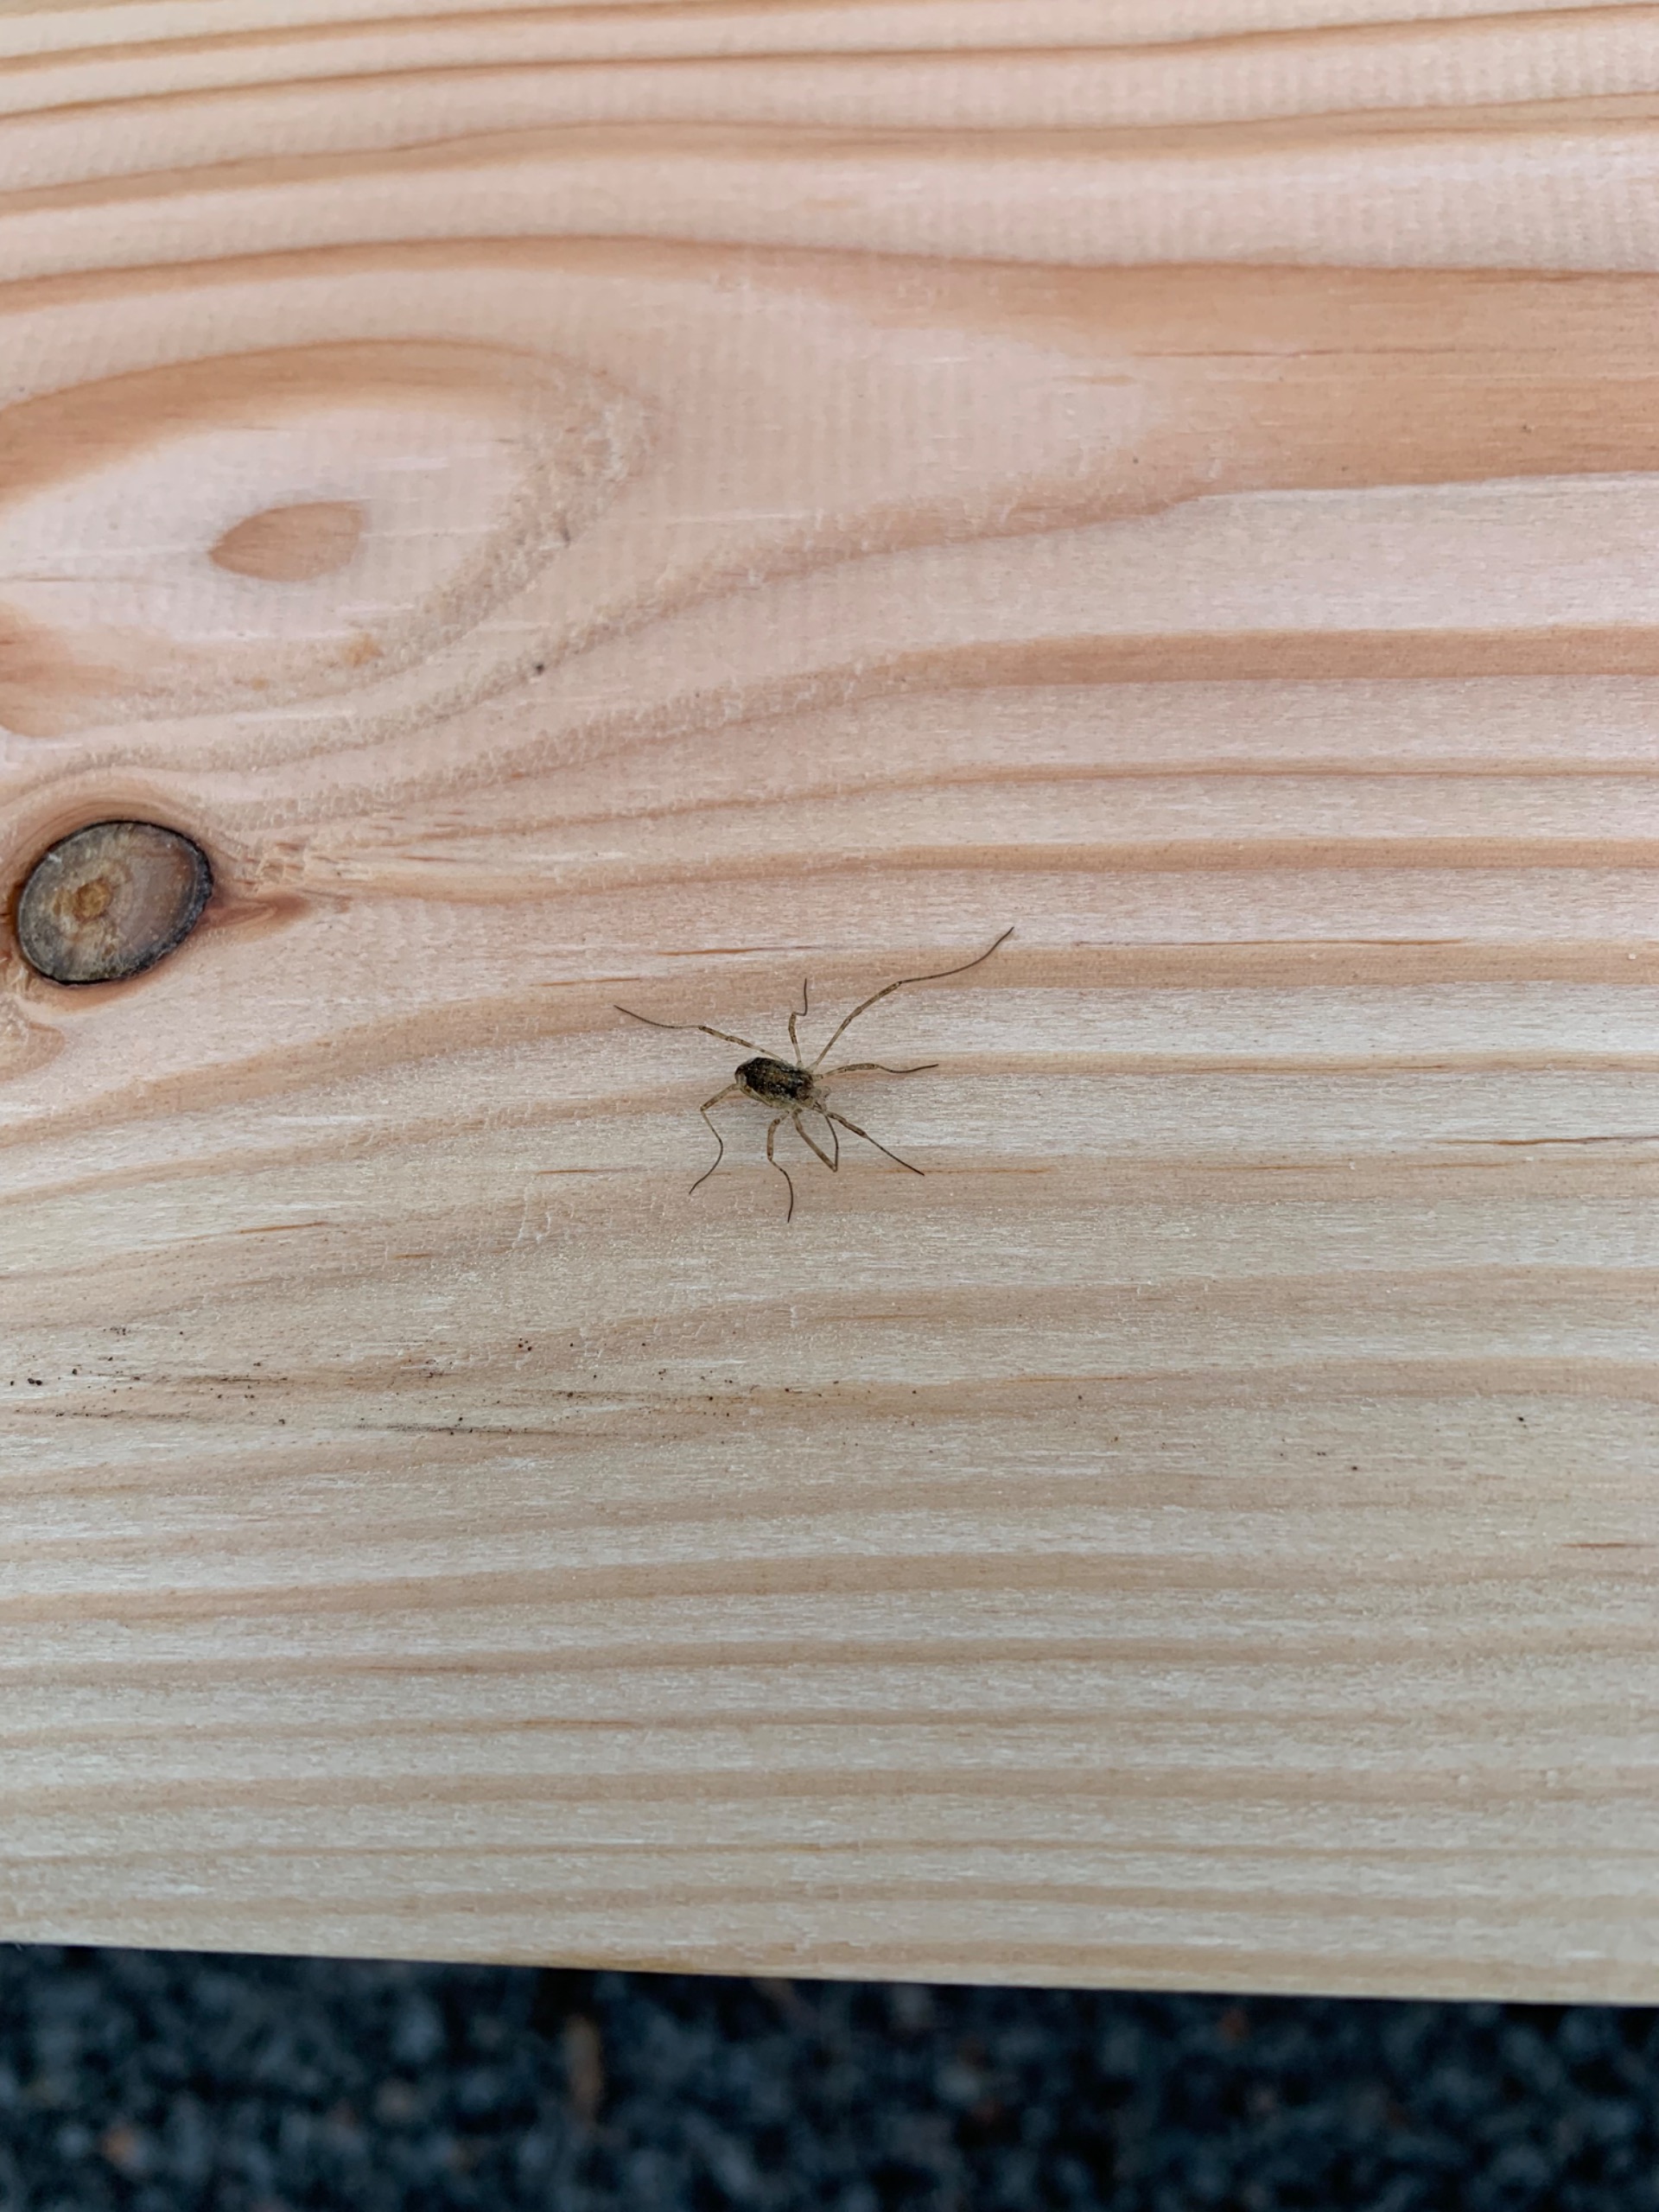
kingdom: Animalia
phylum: Arthropoda
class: Arachnida
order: Opiliones
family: Phalangiidae
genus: Paroligolophus
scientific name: Paroligolophus agrestis
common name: Hedemejer
